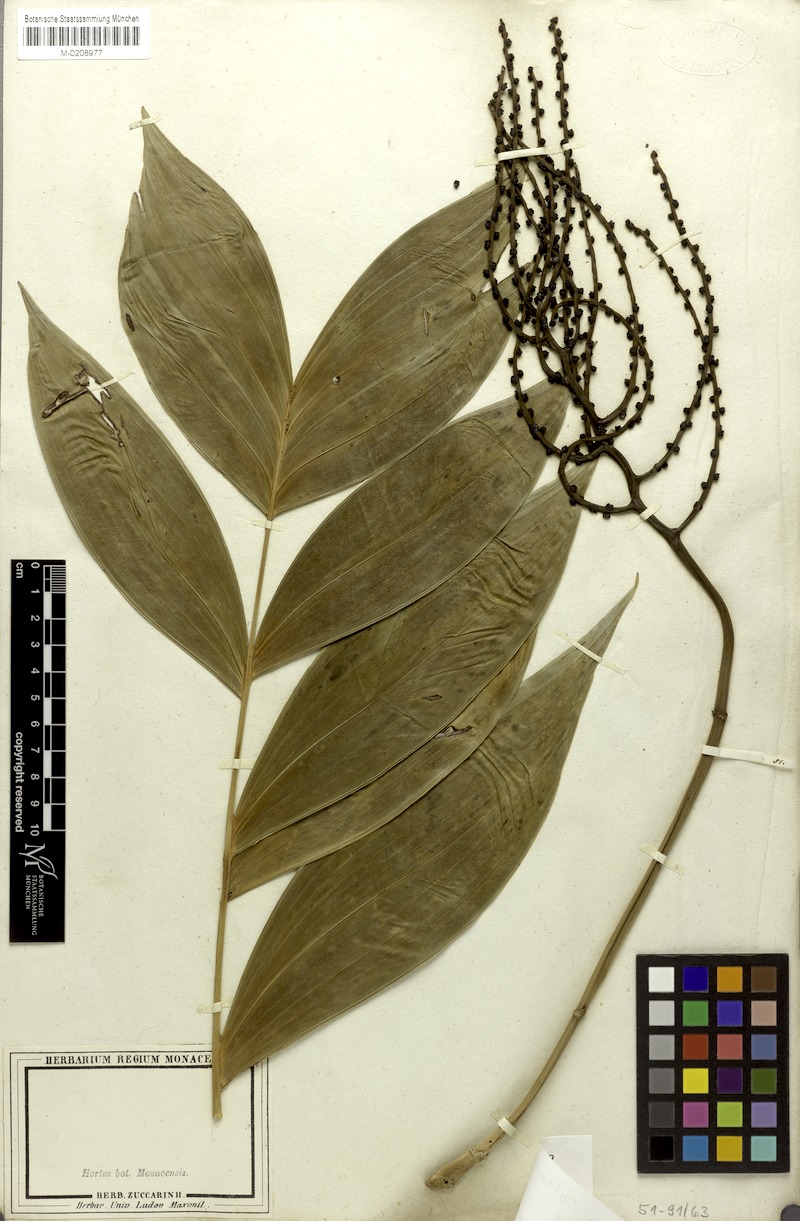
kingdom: Plantae
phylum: Tracheophyta
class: Liliopsida
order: Arecales
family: Arecaceae
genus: Chamaedorea
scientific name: Chamaedorea oblongata
